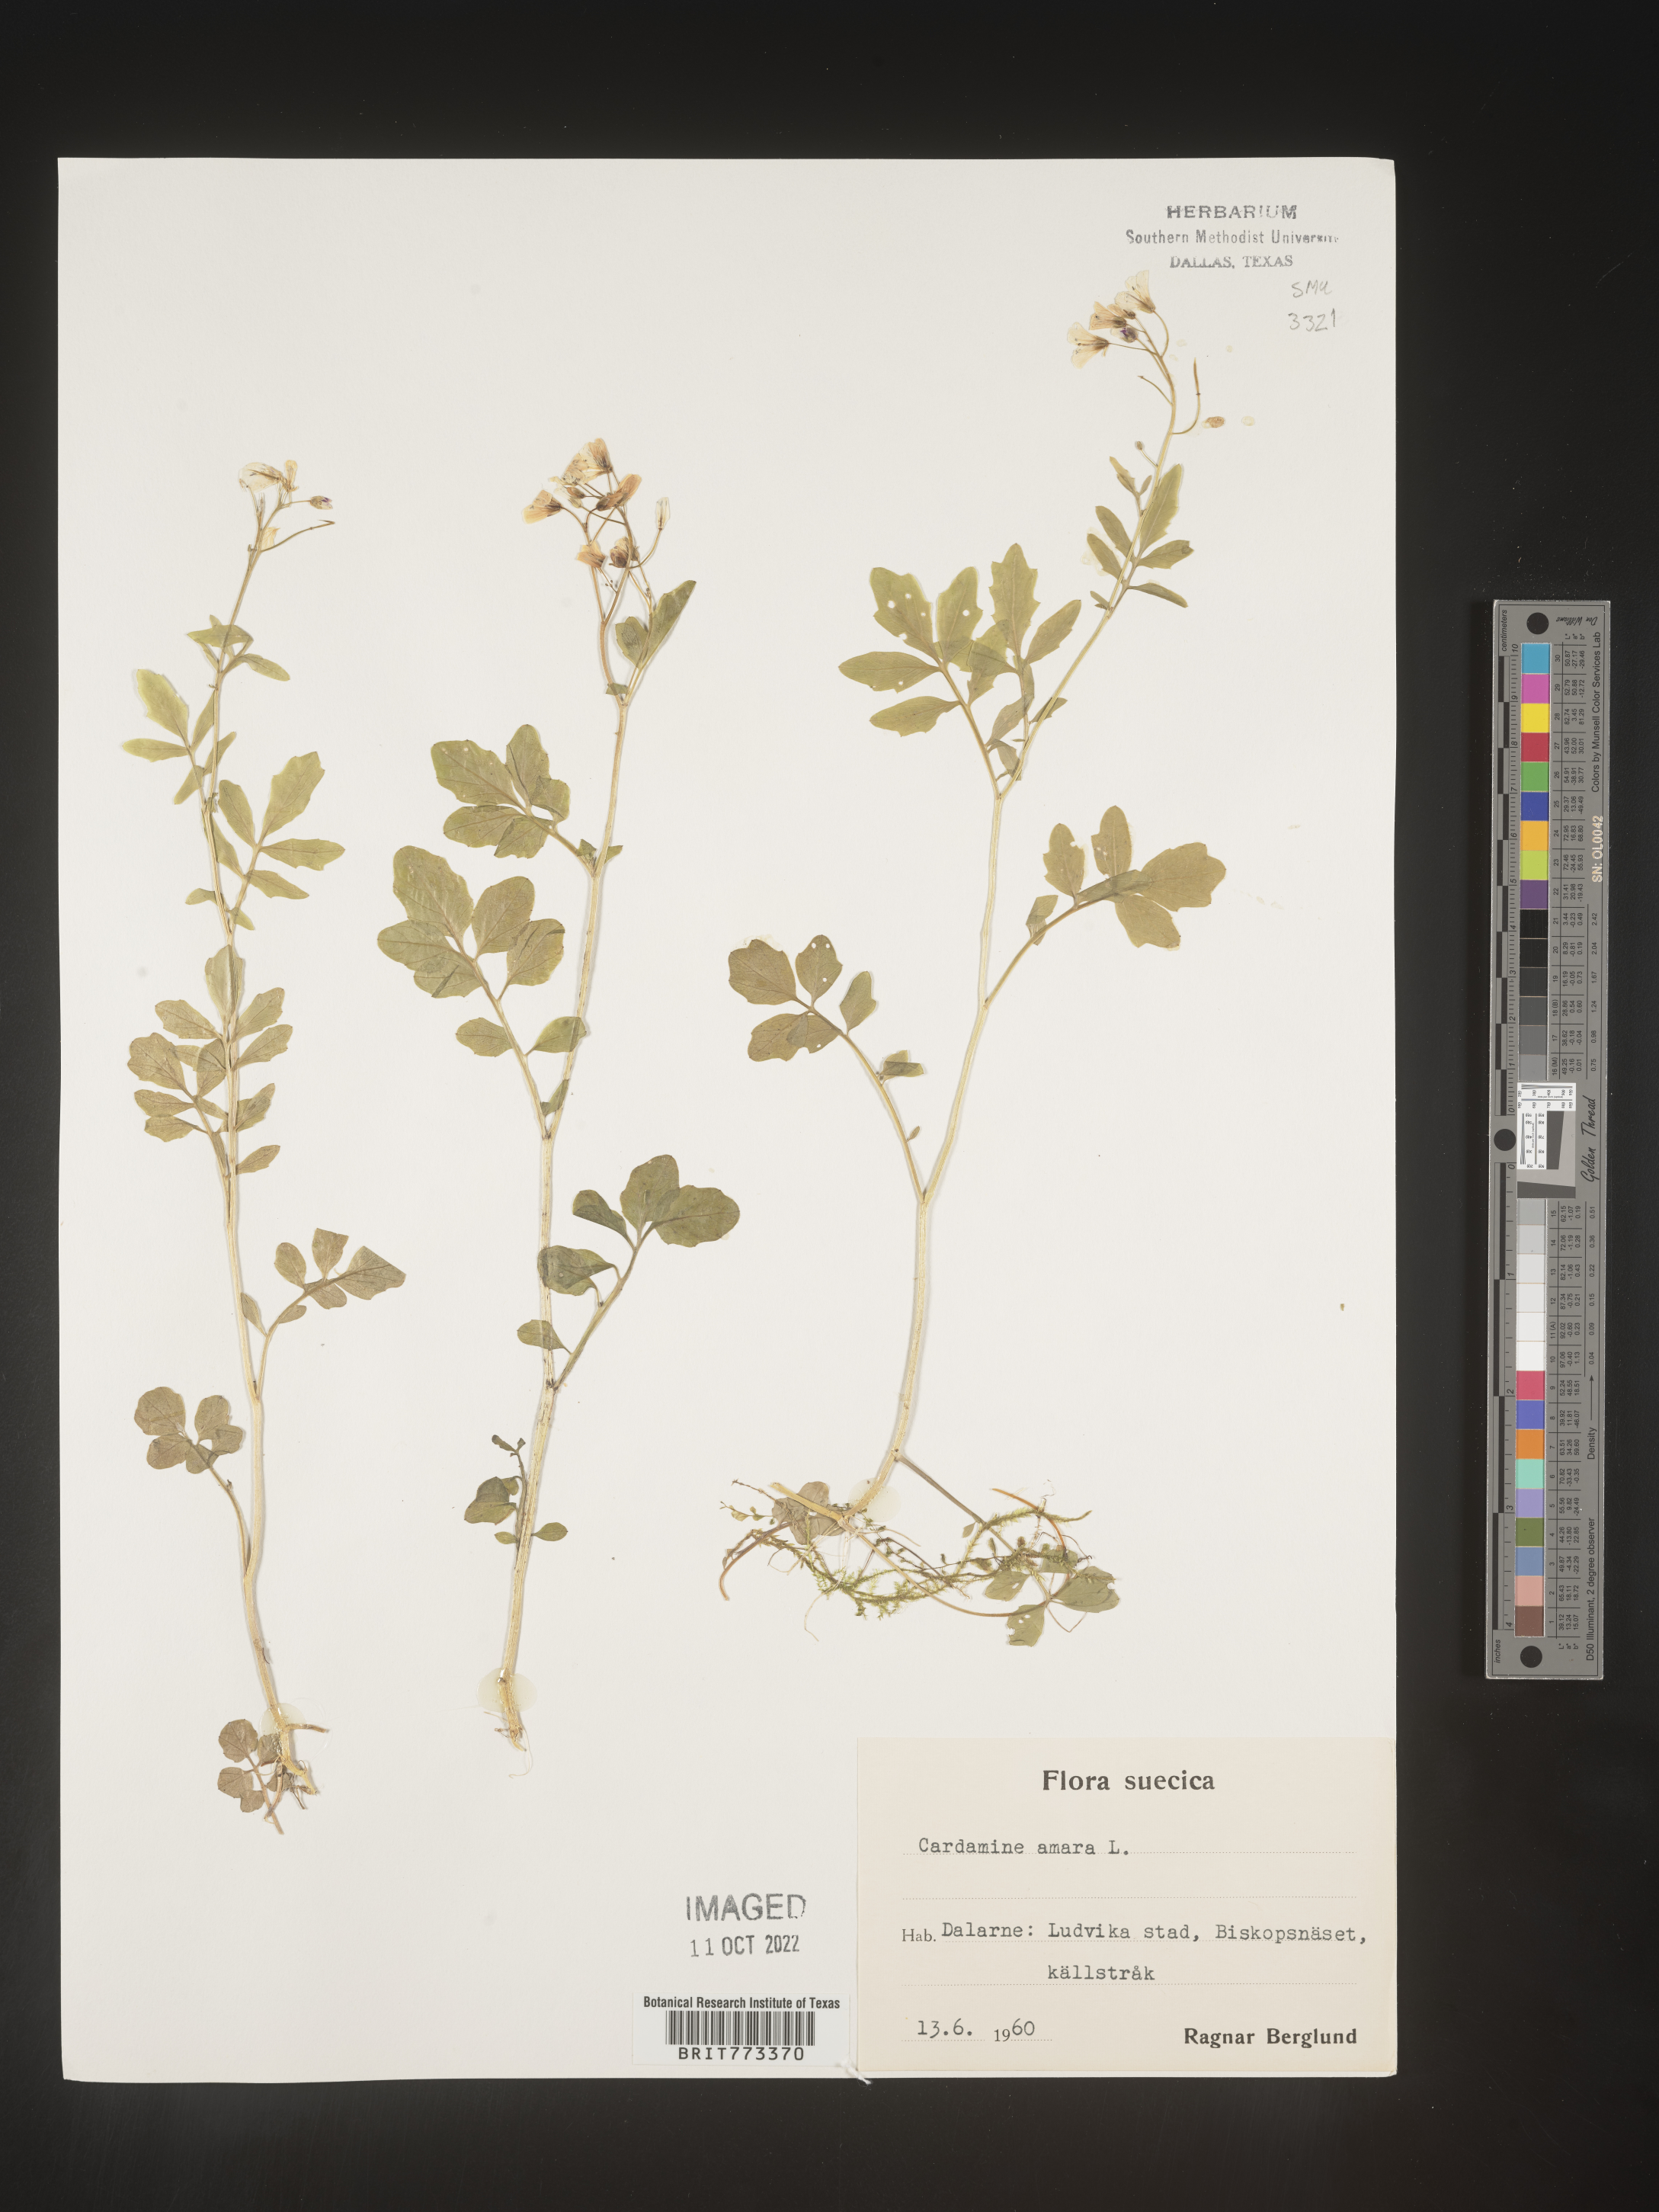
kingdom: Plantae
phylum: Tracheophyta
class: Magnoliopsida
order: Brassicales
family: Brassicaceae
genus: Cardamine
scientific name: Cardamine
